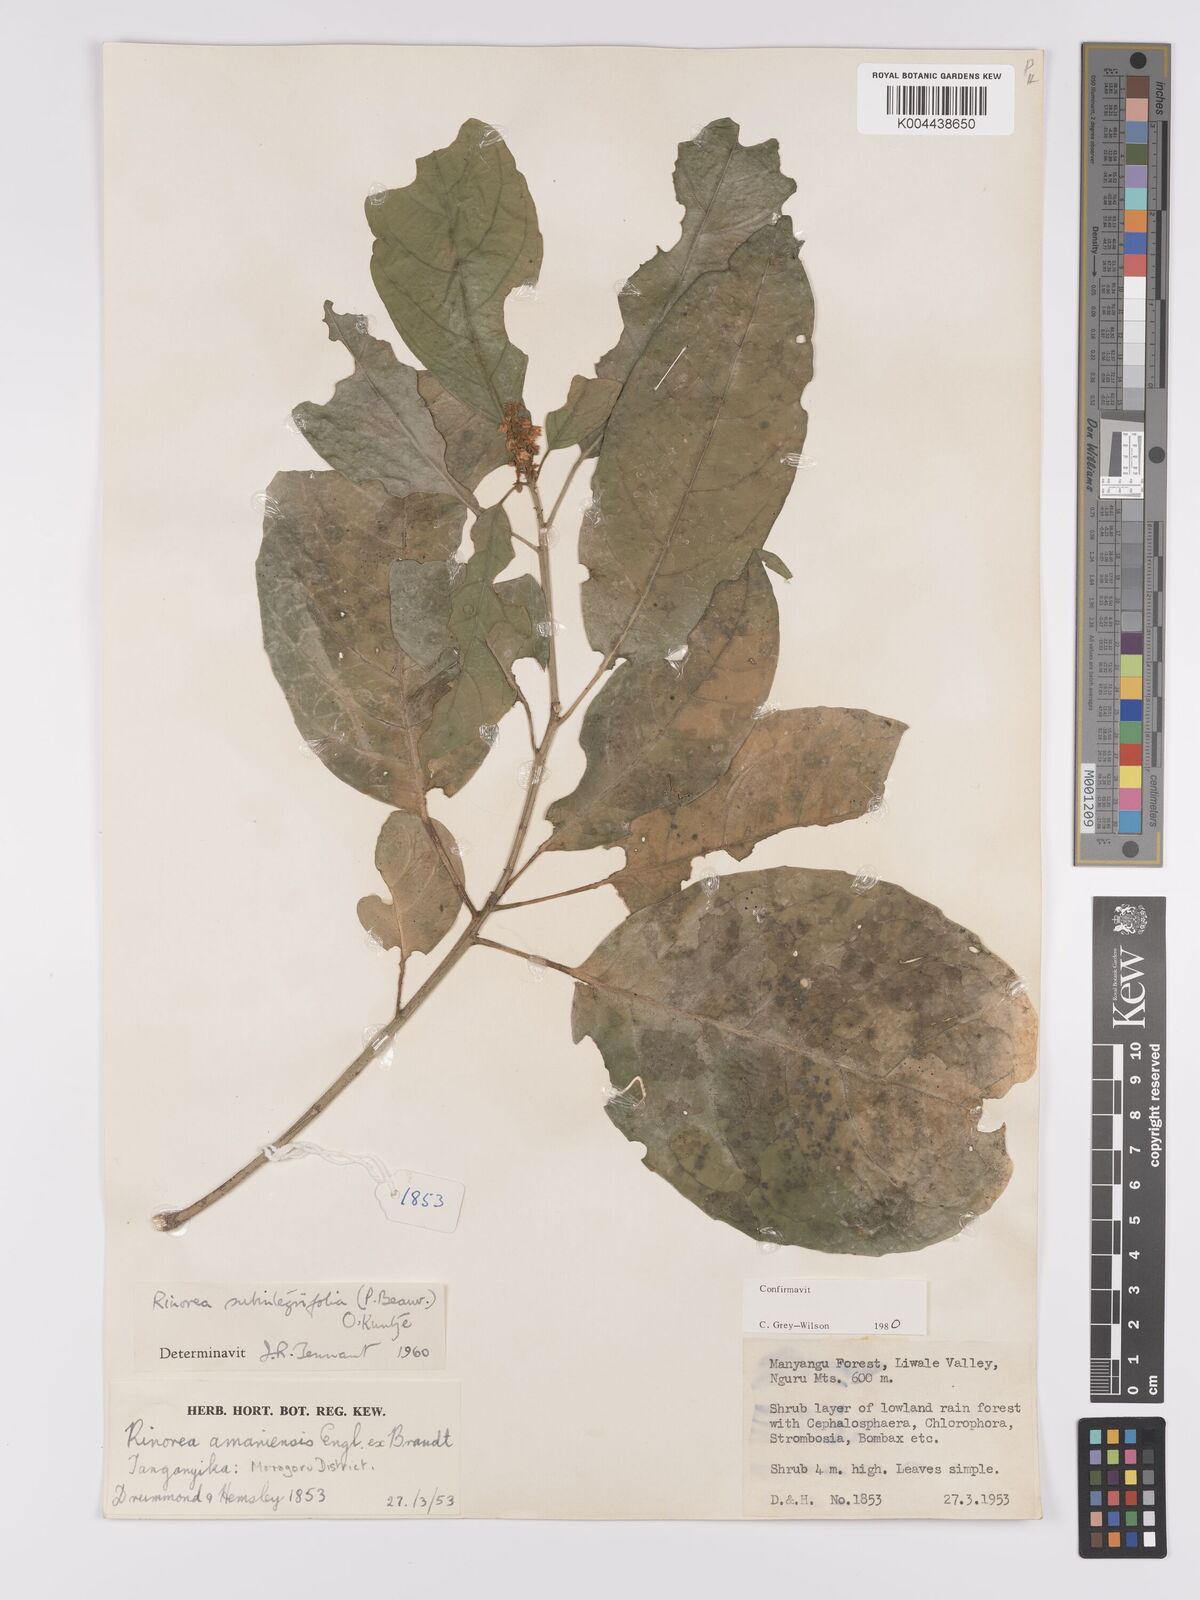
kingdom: Plantae
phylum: Tracheophyta
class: Magnoliopsida
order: Apiales
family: Pittosporaceae
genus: Marianthus
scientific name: Marianthus coeruleopunctatus
